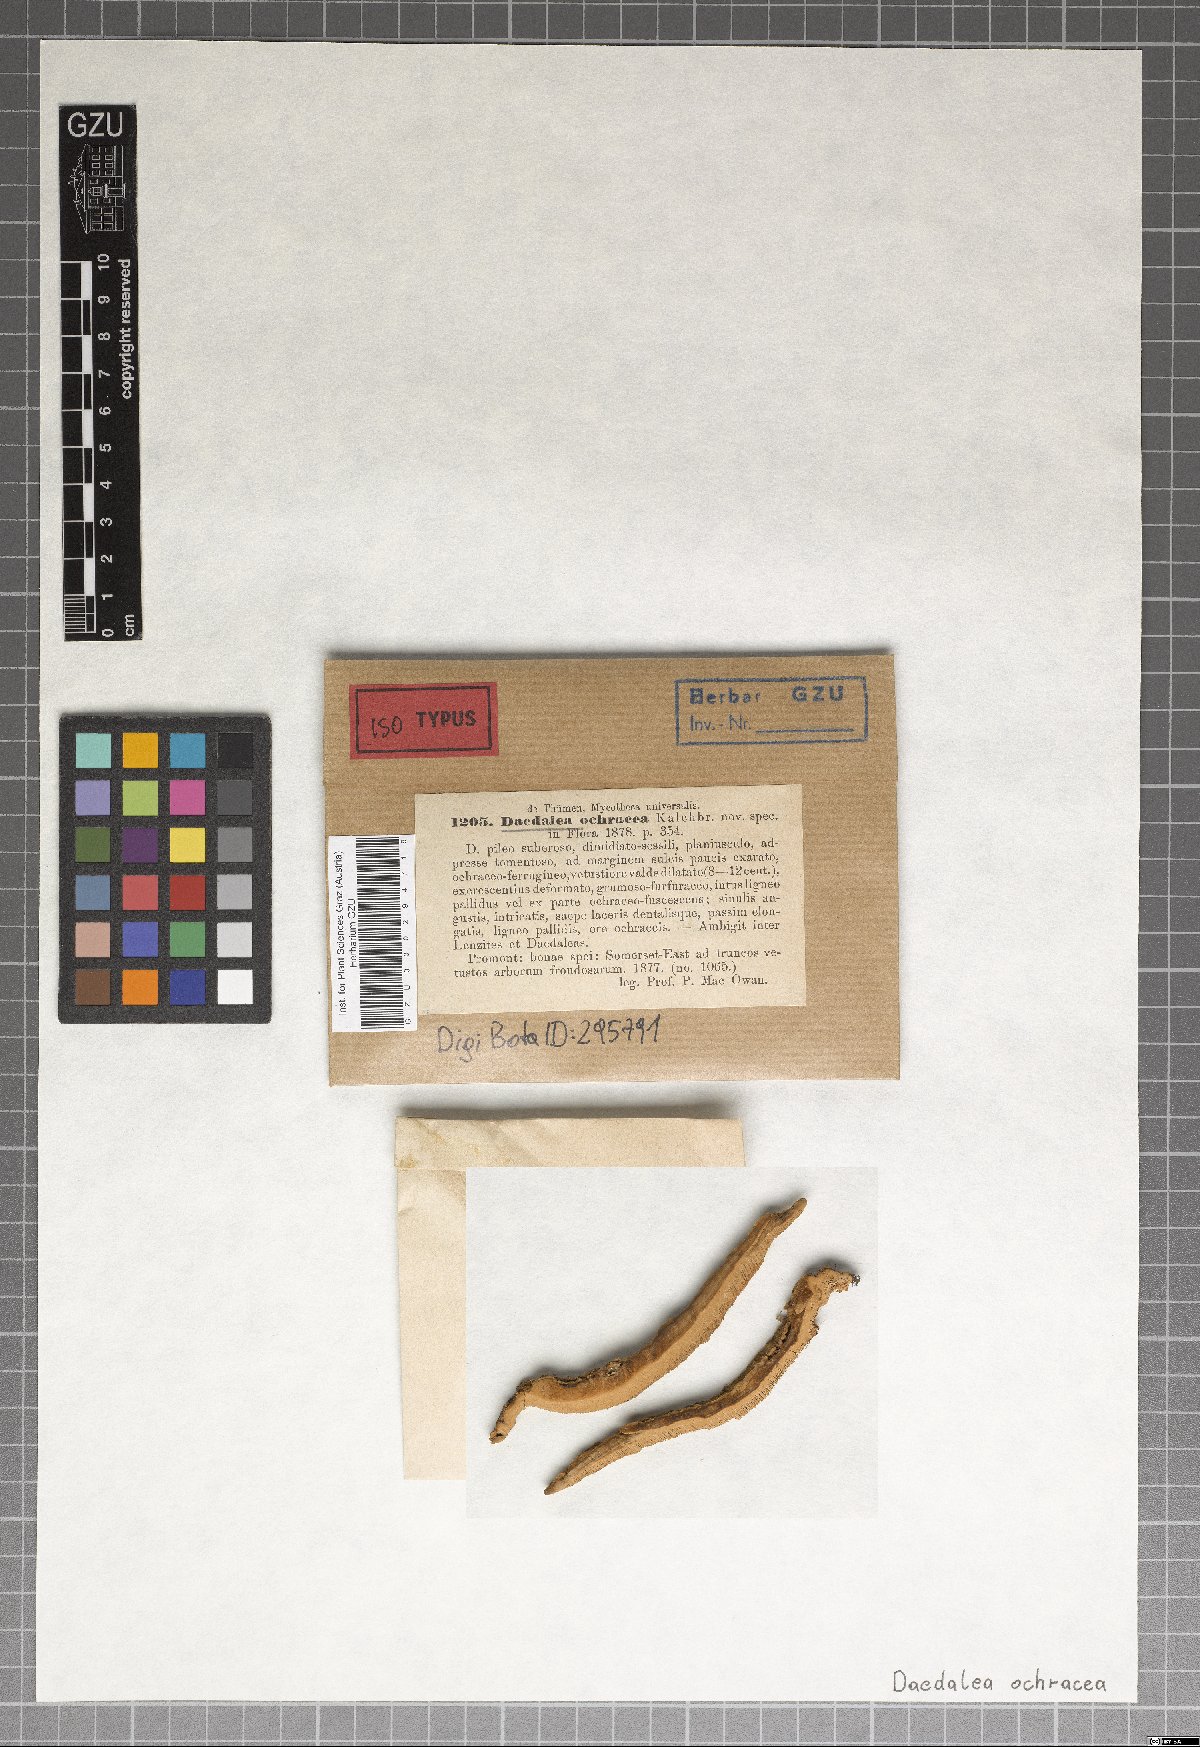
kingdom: Fungi
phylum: Basidiomycota
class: Agaricomycetes
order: Polyporales
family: Polyporaceae
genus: Trametes
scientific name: Trametes meyenii
